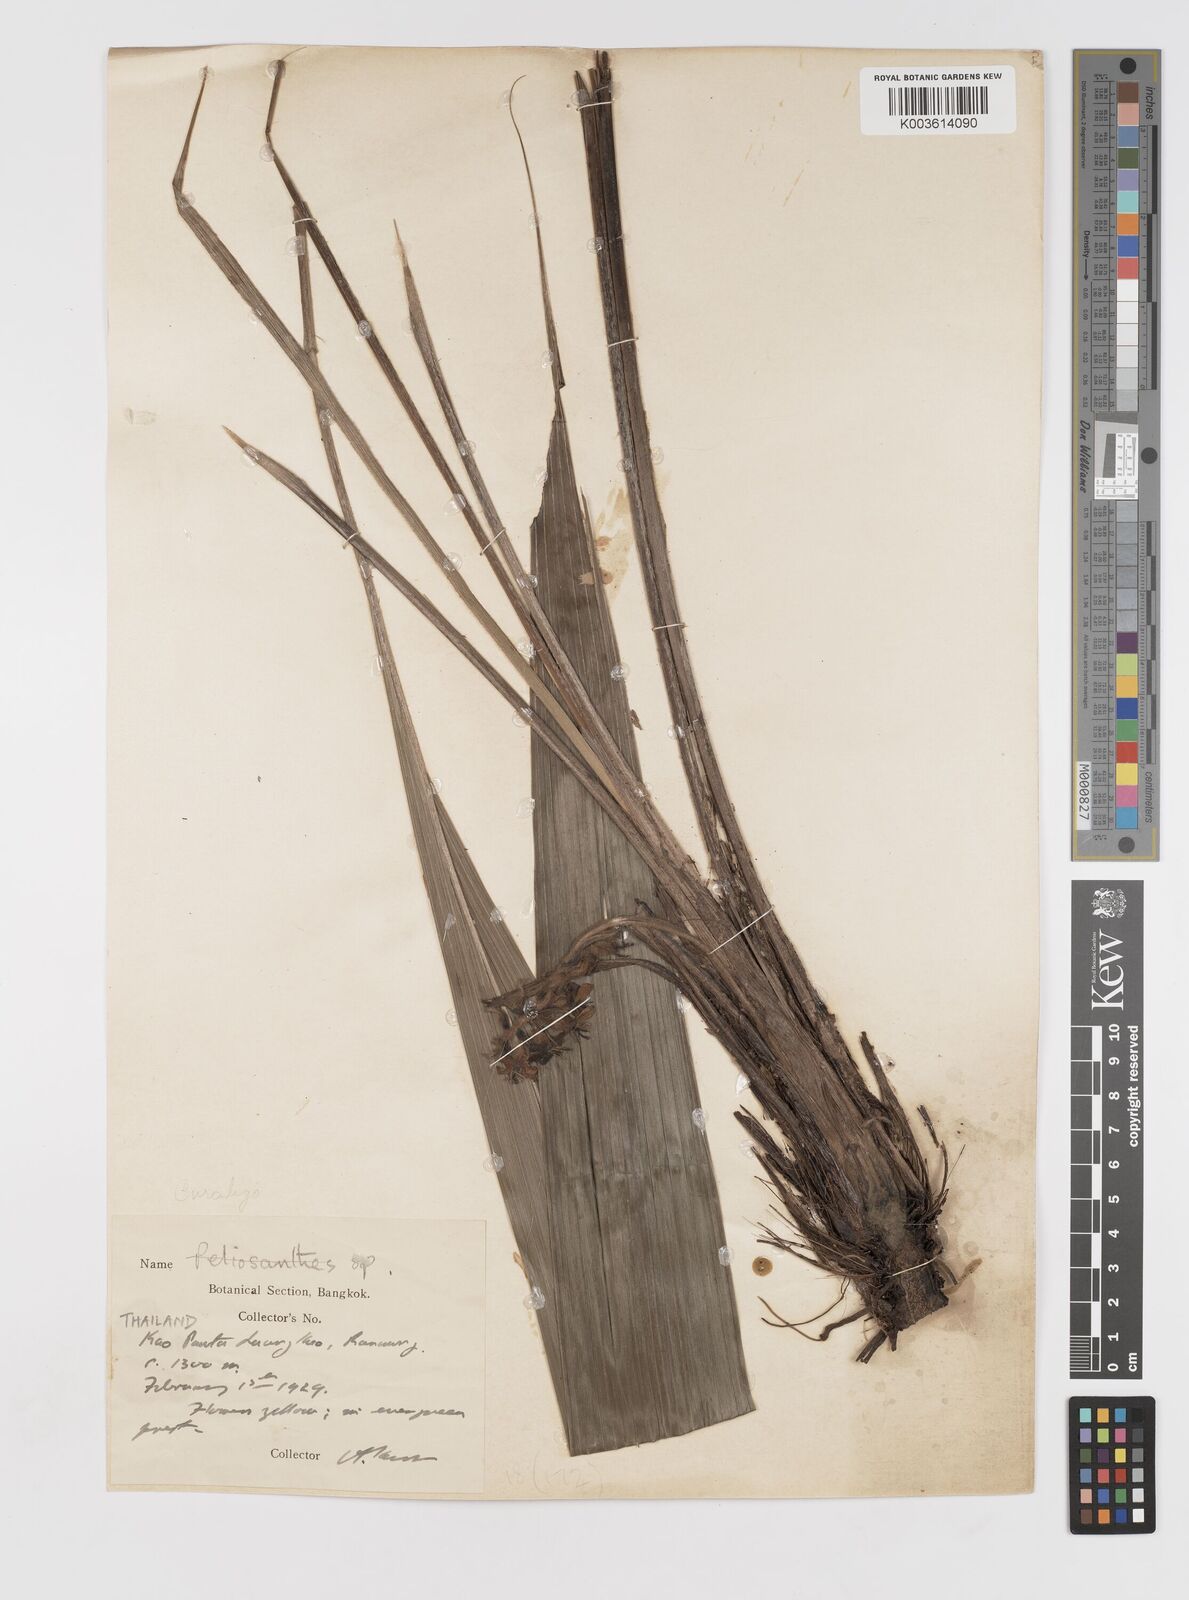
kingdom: Plantae
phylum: Tracheophyta
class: Liliopsida
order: Asparagales
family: Hypoxidaceae
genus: Curculigo
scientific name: Curculigo
